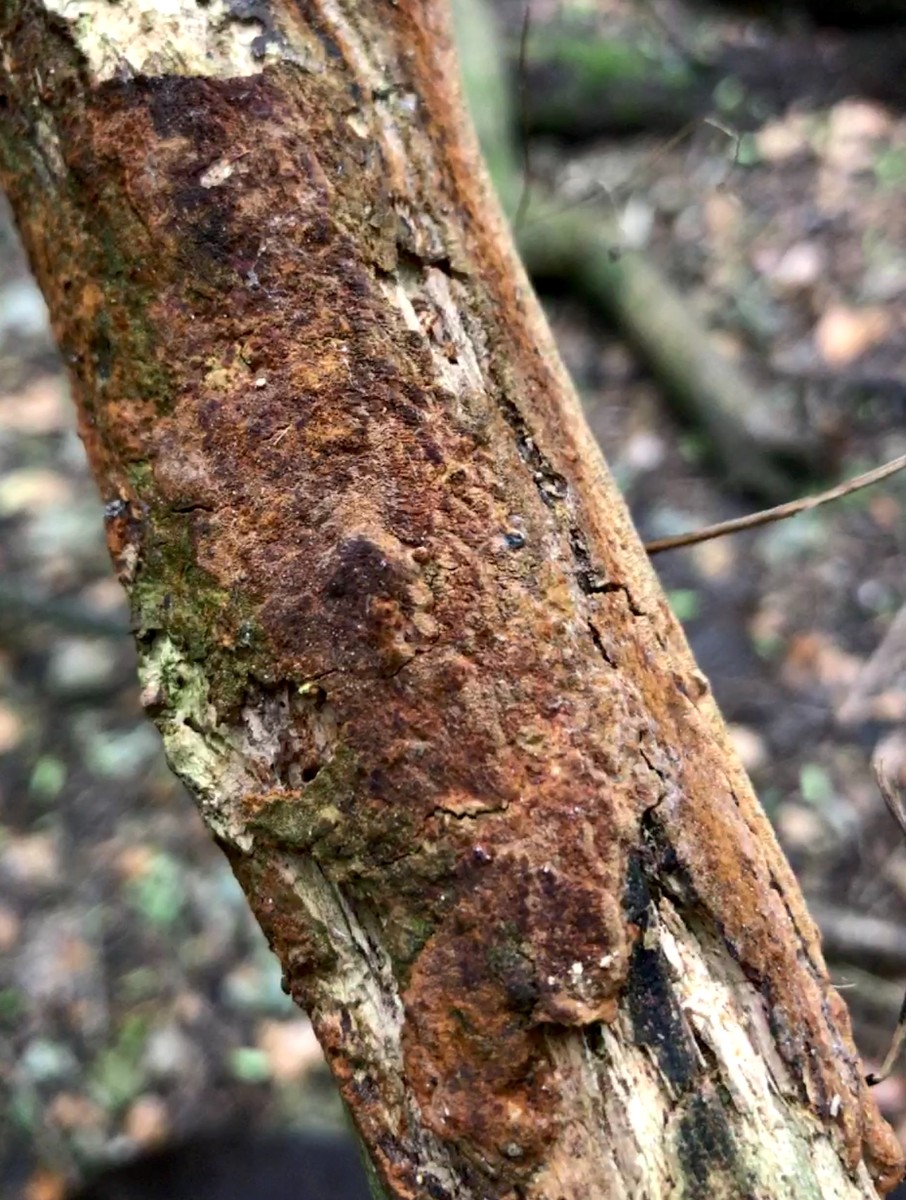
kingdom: Fungi
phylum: Basidiomycota
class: Agaricomycetes
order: Hymenochaetales
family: Hymenochaetaceae
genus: Fuscoporia
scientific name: Fuscoporia ferrea
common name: skorpe-ildporesvamp
